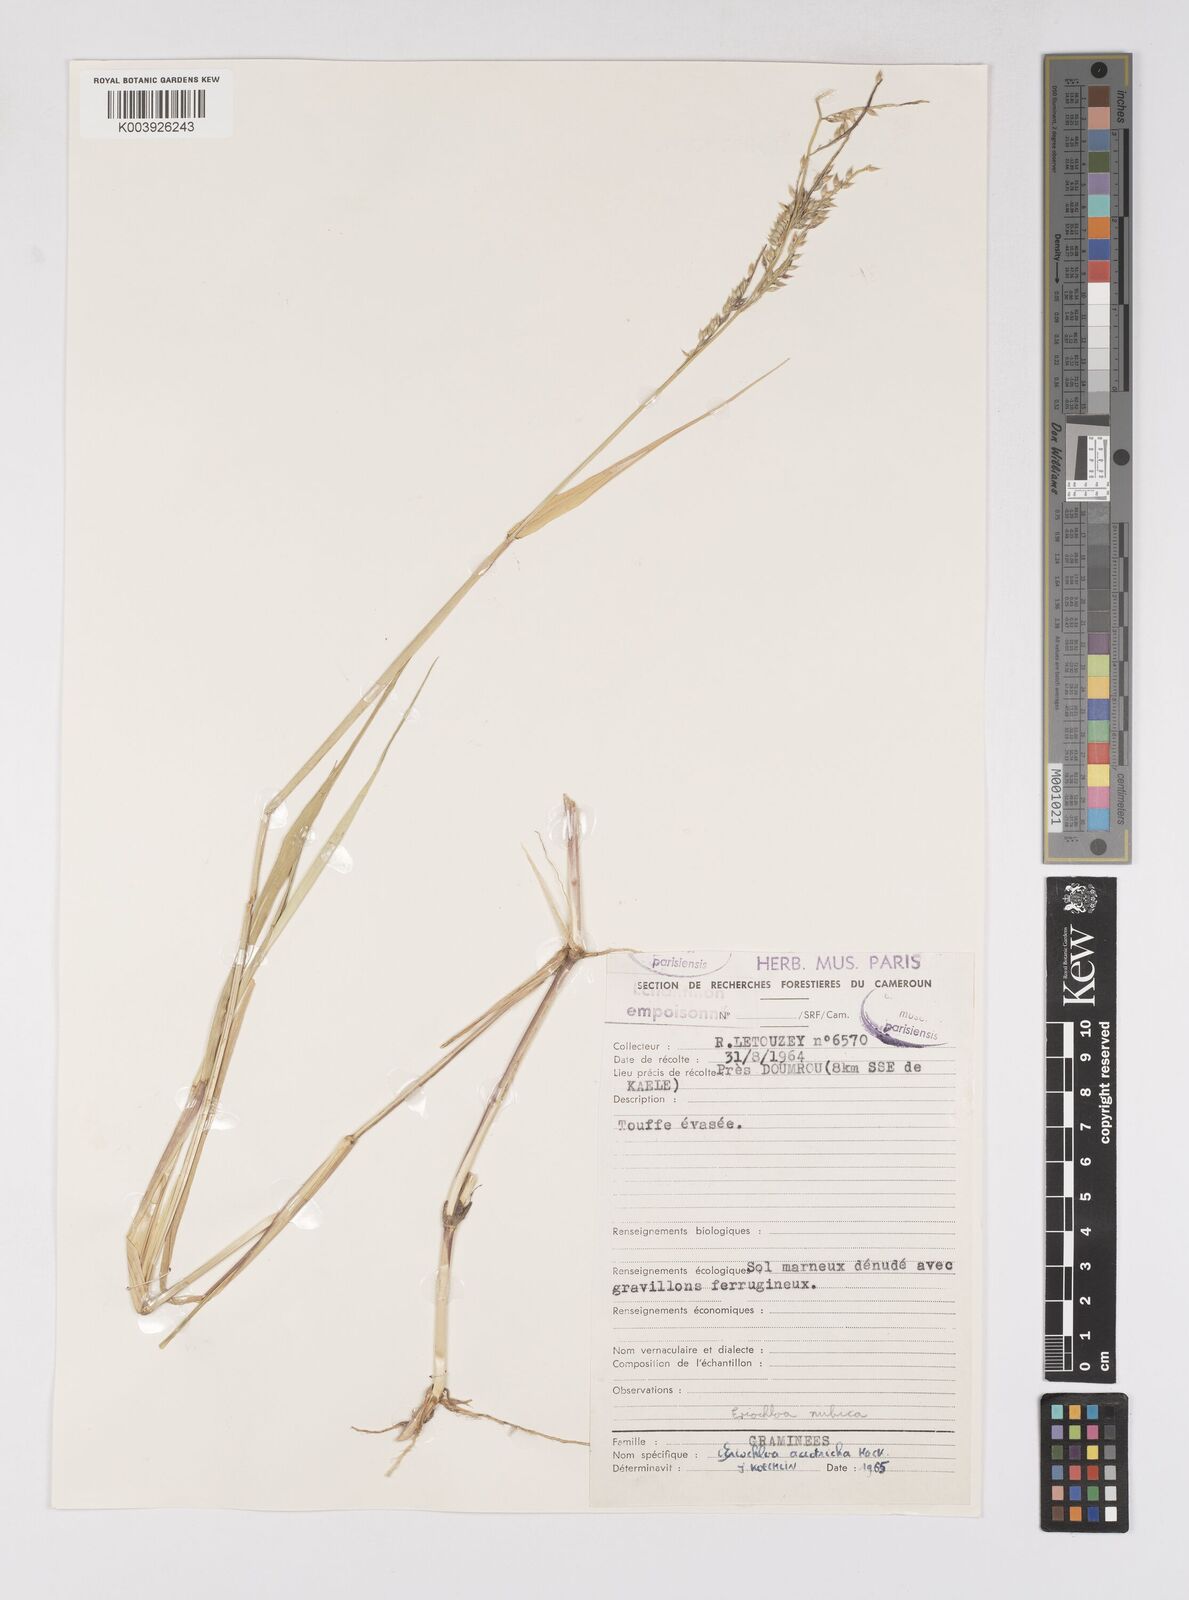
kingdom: Plantae
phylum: Tracheophyta
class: Liliopsida
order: Poales
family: Poaceae
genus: Eriochloa
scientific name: Eriochloa barbatus
